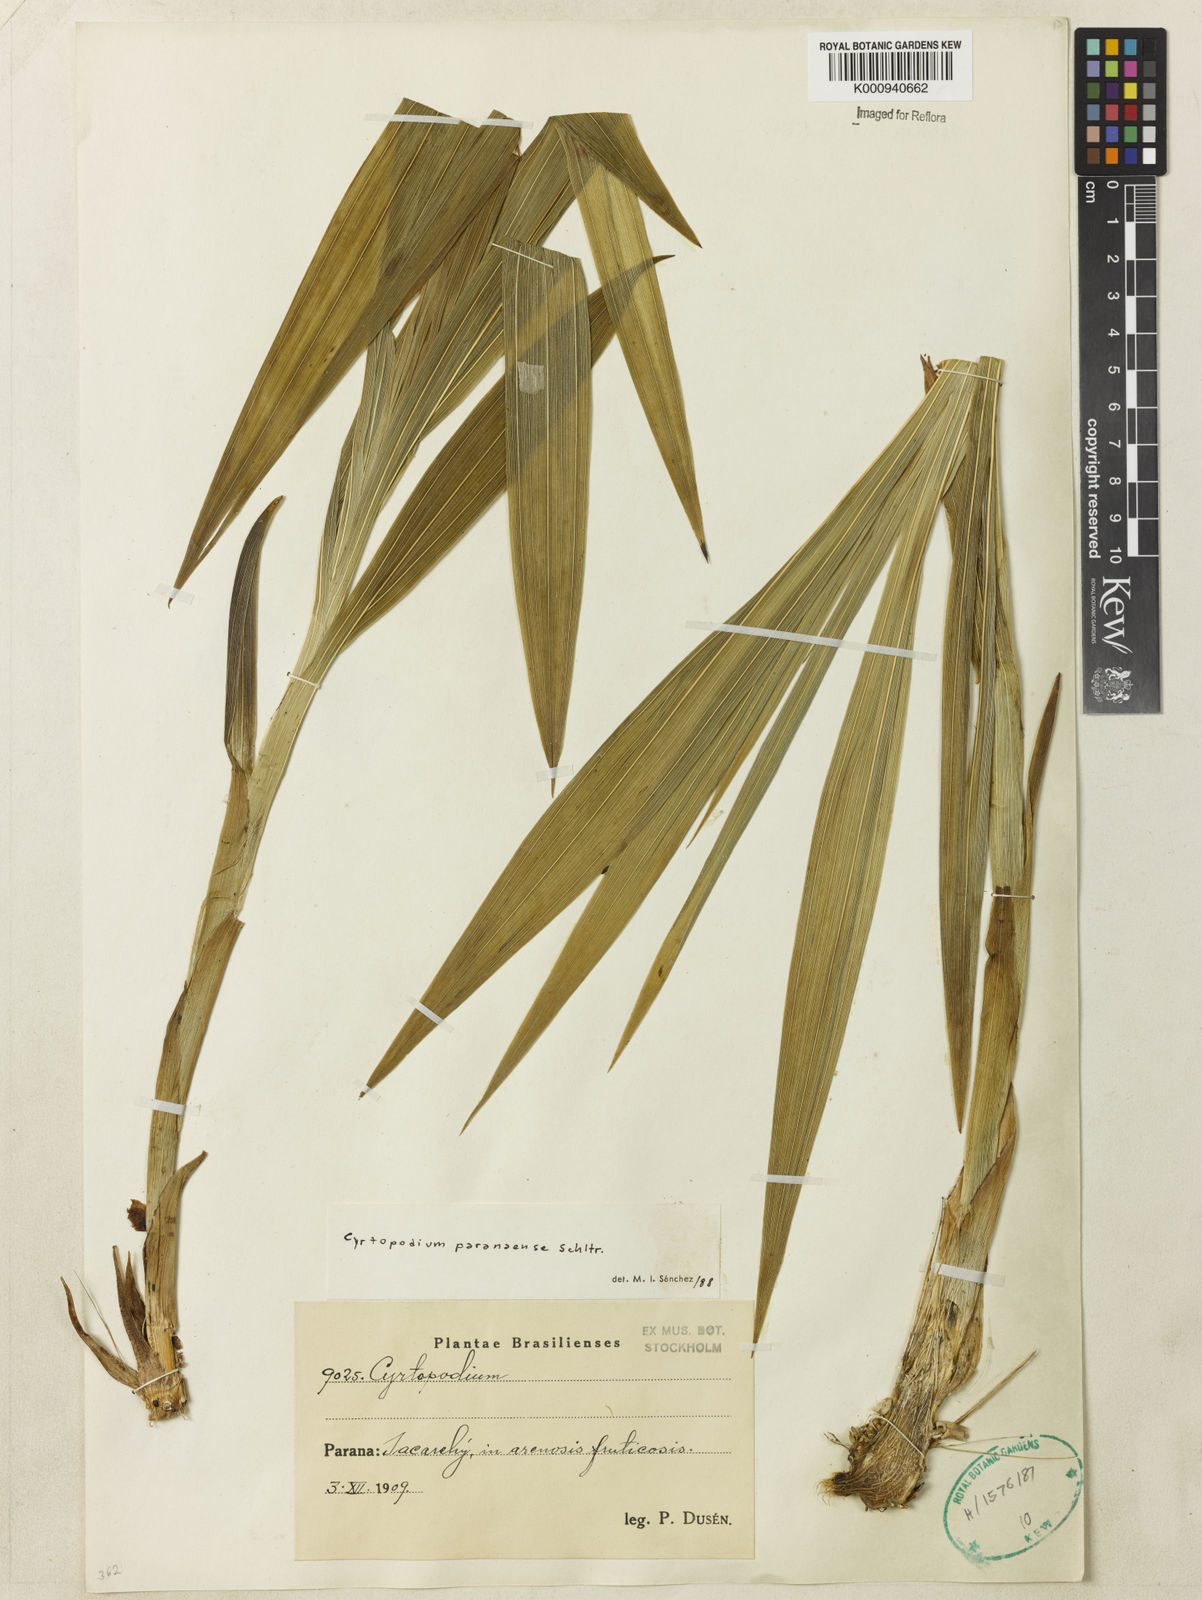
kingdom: Plantae
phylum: Tracheophyta
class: Liliopsida
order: Asparagales
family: Orchidaceae
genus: Cyrtopodium
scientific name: Cyrtopodium flavum
